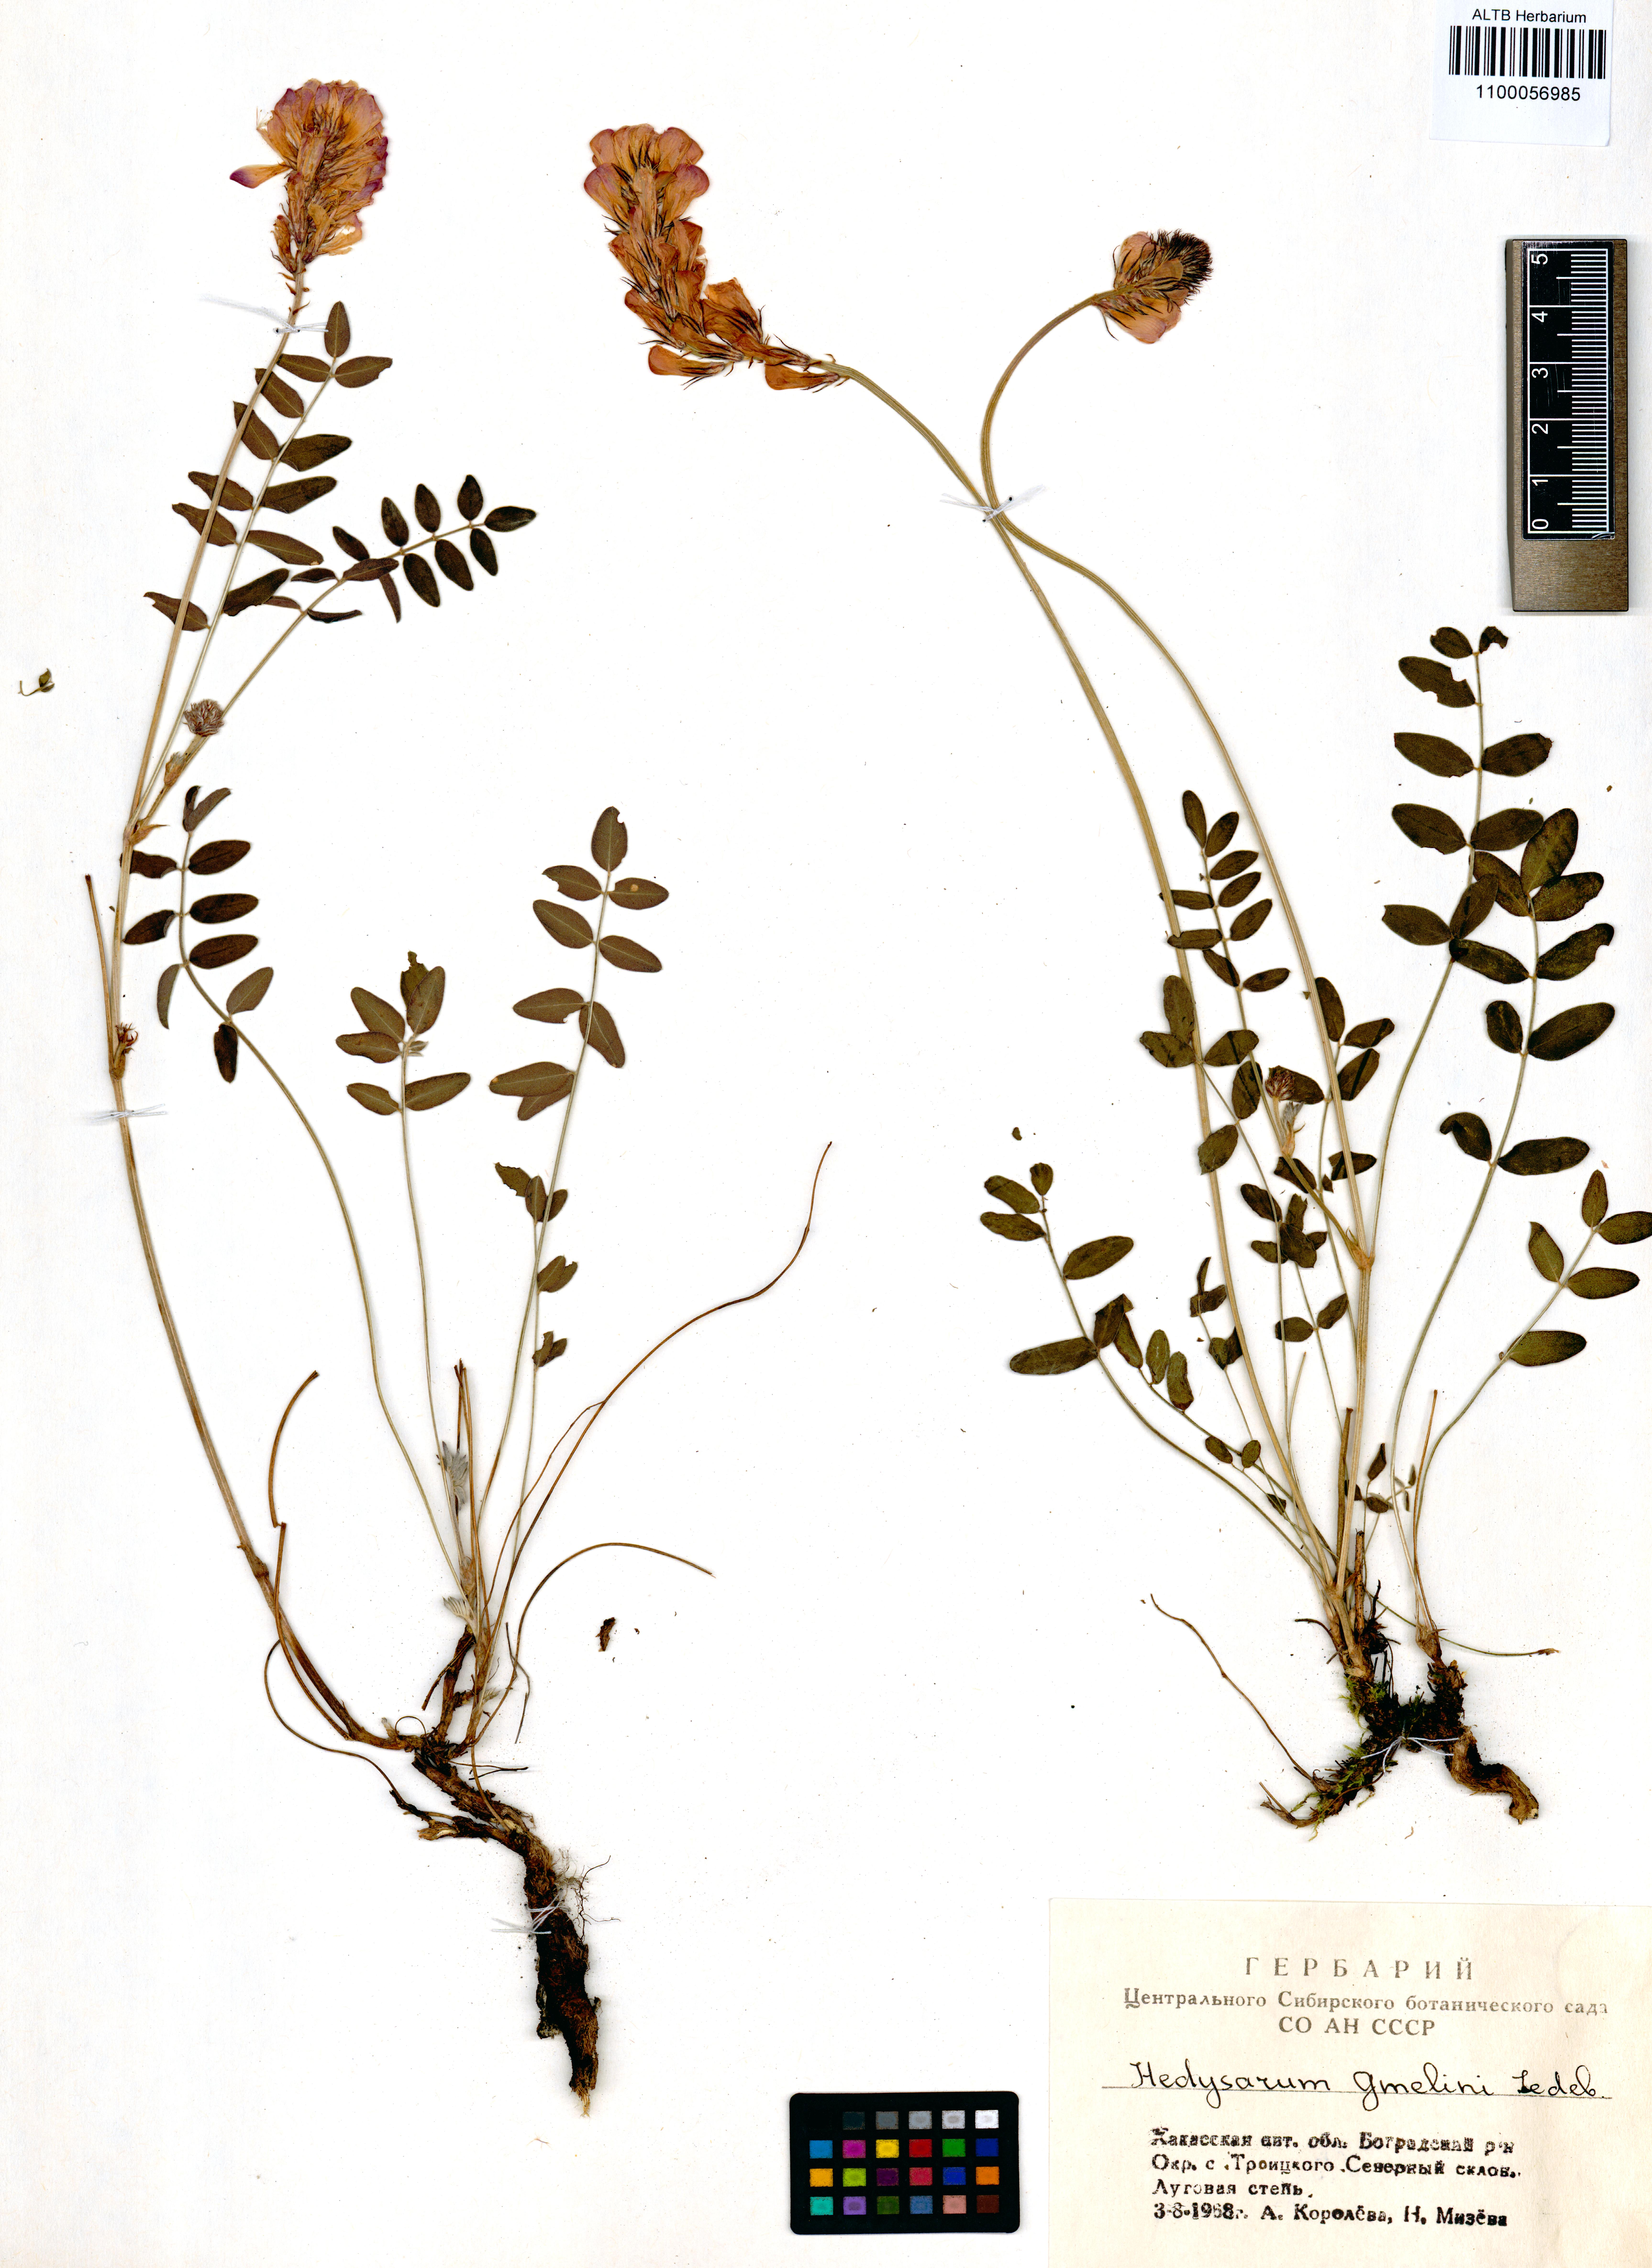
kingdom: Plantae
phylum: Tracheophyta
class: Magnoliopsida
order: Fabales
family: Fabaceae
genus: Hedysarum
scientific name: Hedysarum gmelinii
